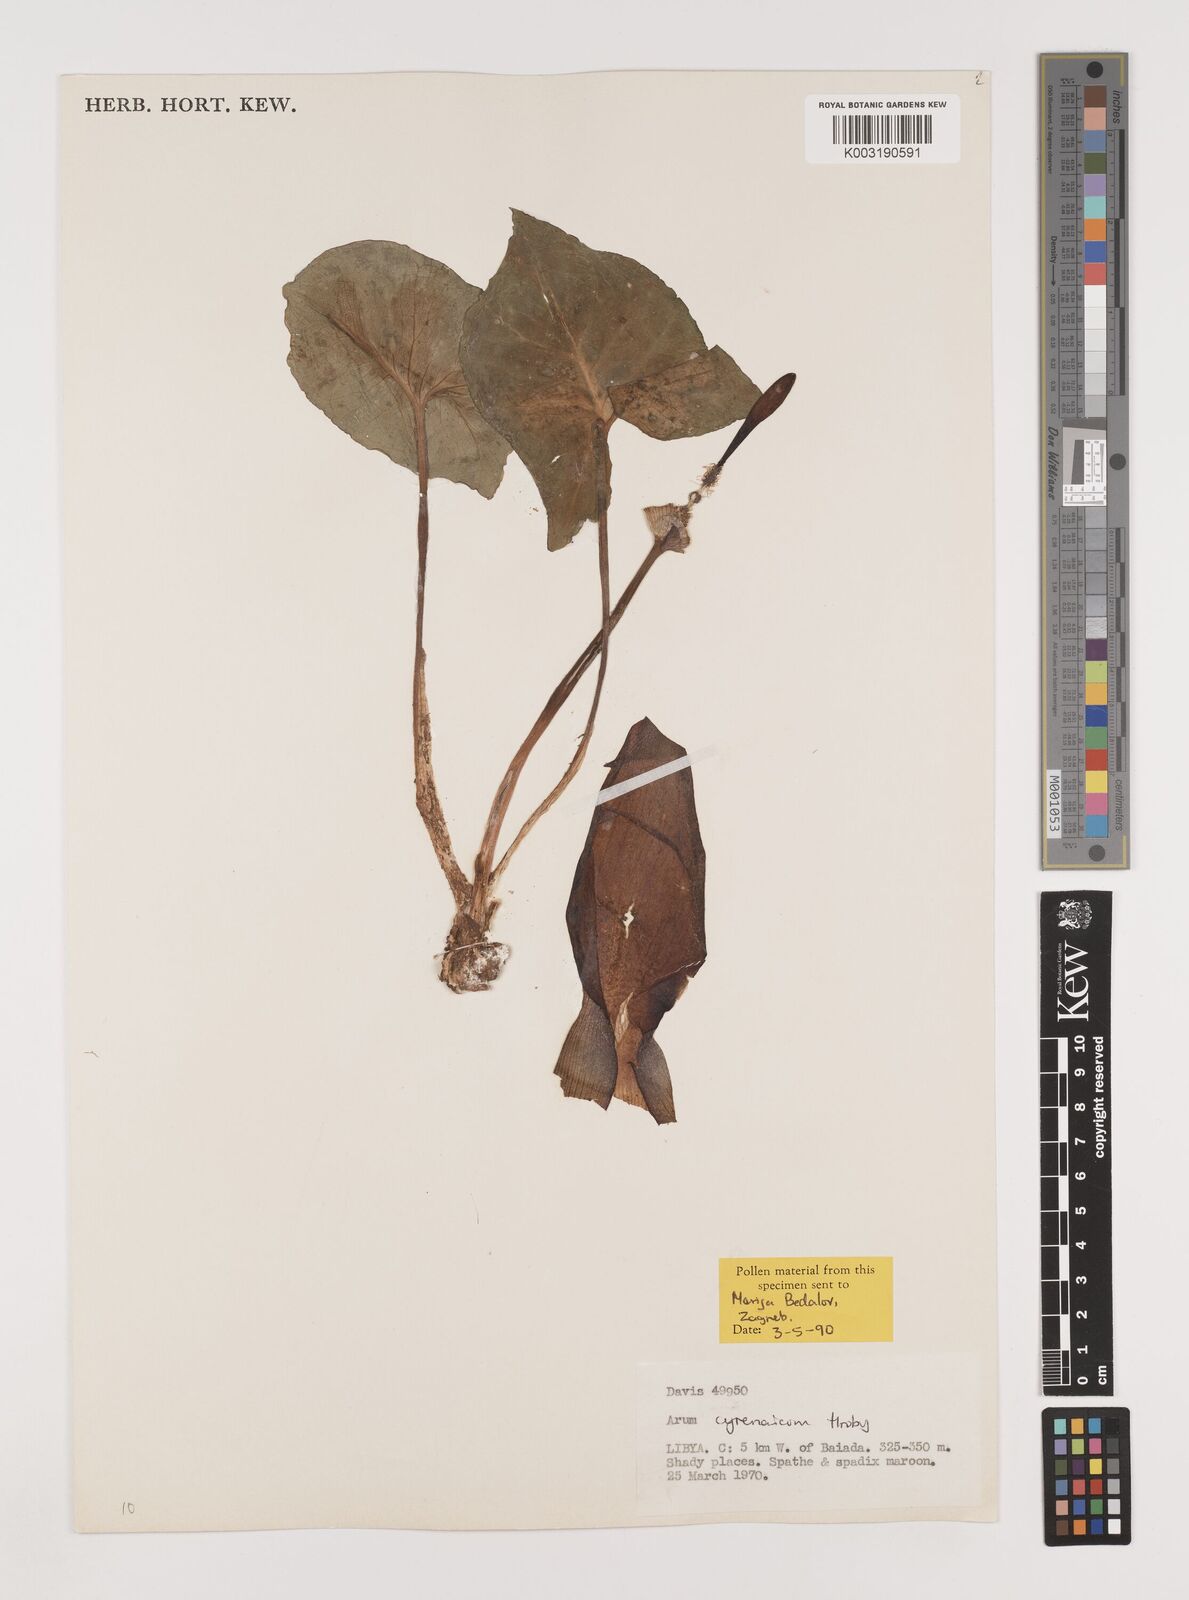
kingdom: Plantae
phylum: Tracheophyta
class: Liliopsida
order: Alismatales
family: Araceae
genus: Arum
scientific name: Arum cyrenaicum
